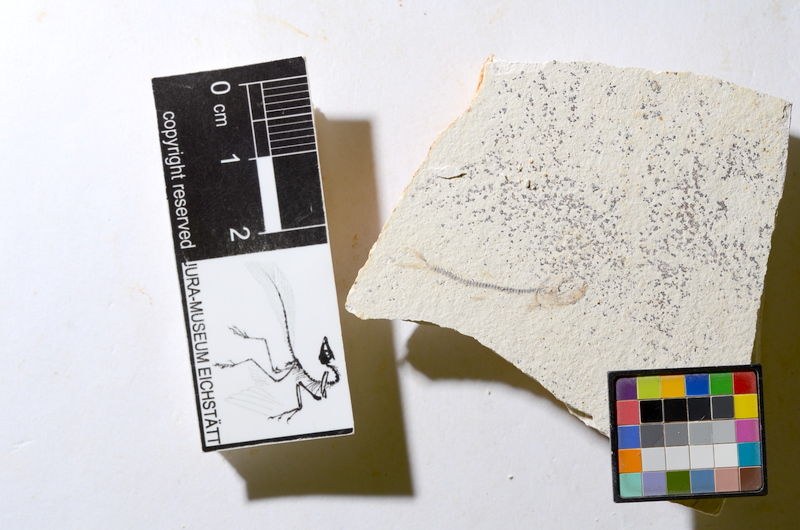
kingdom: Animalia
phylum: Chordata
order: Salmoniformes
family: Orthogonikleithridae
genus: Orthogonikleithrus
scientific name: Orthogonikleithrus hoelli
